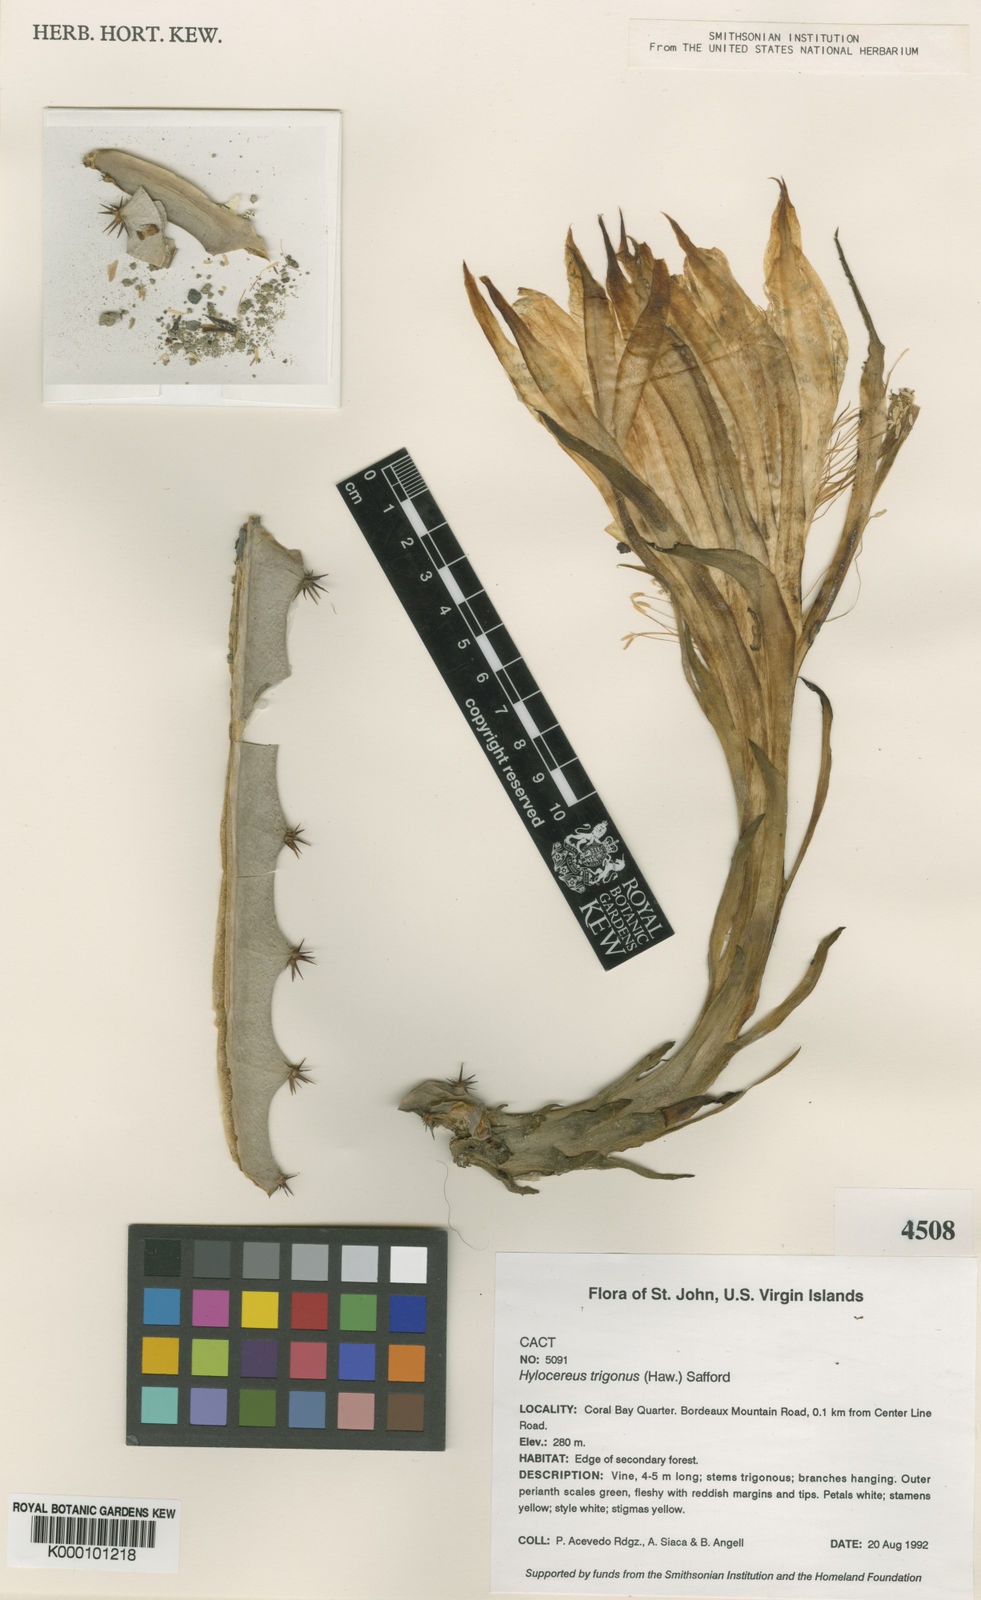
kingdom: Plantae
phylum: Tracheophyta
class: Magnoliopsida
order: Caryophyllales
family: Cactaceae
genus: Selenicereus
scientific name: Selenicereus triangularis
